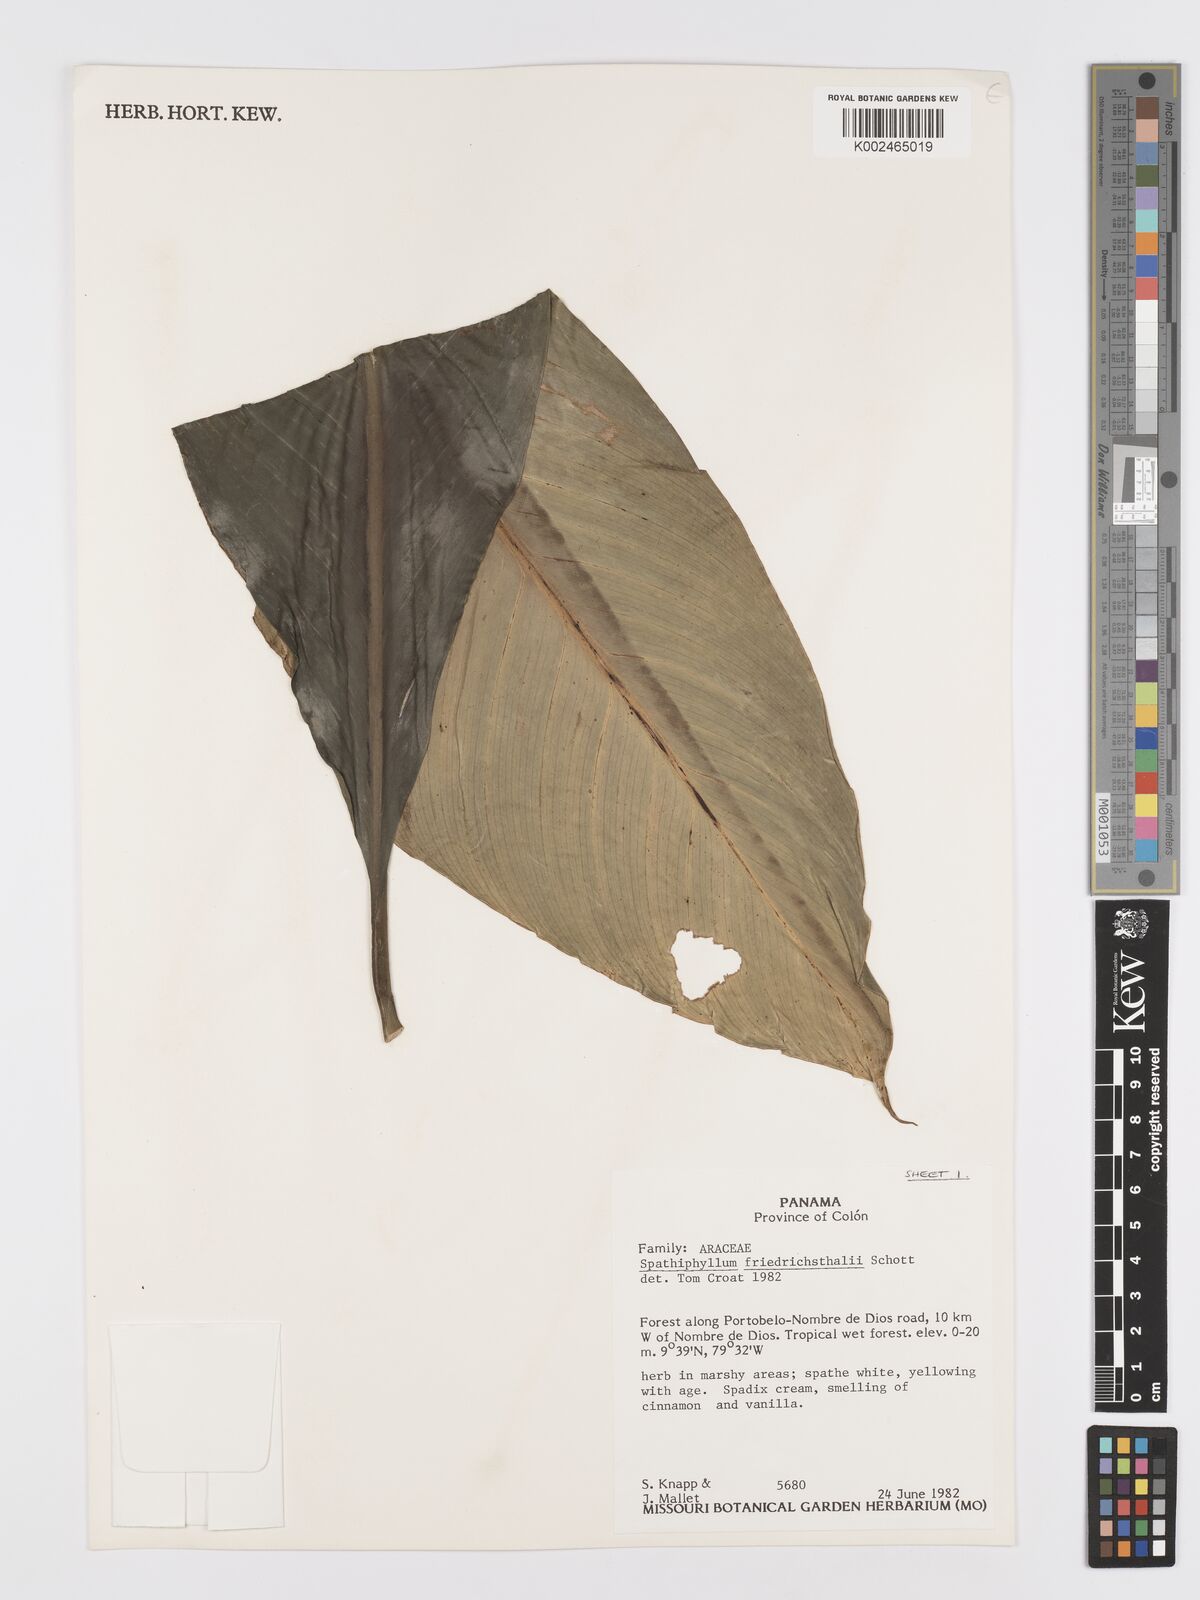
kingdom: Plantae
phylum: Tracheophyta
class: Liliopsida
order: Alismatales
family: Araceae
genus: Spathiphyllum
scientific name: Spathiphyllum friedrichsthalii
